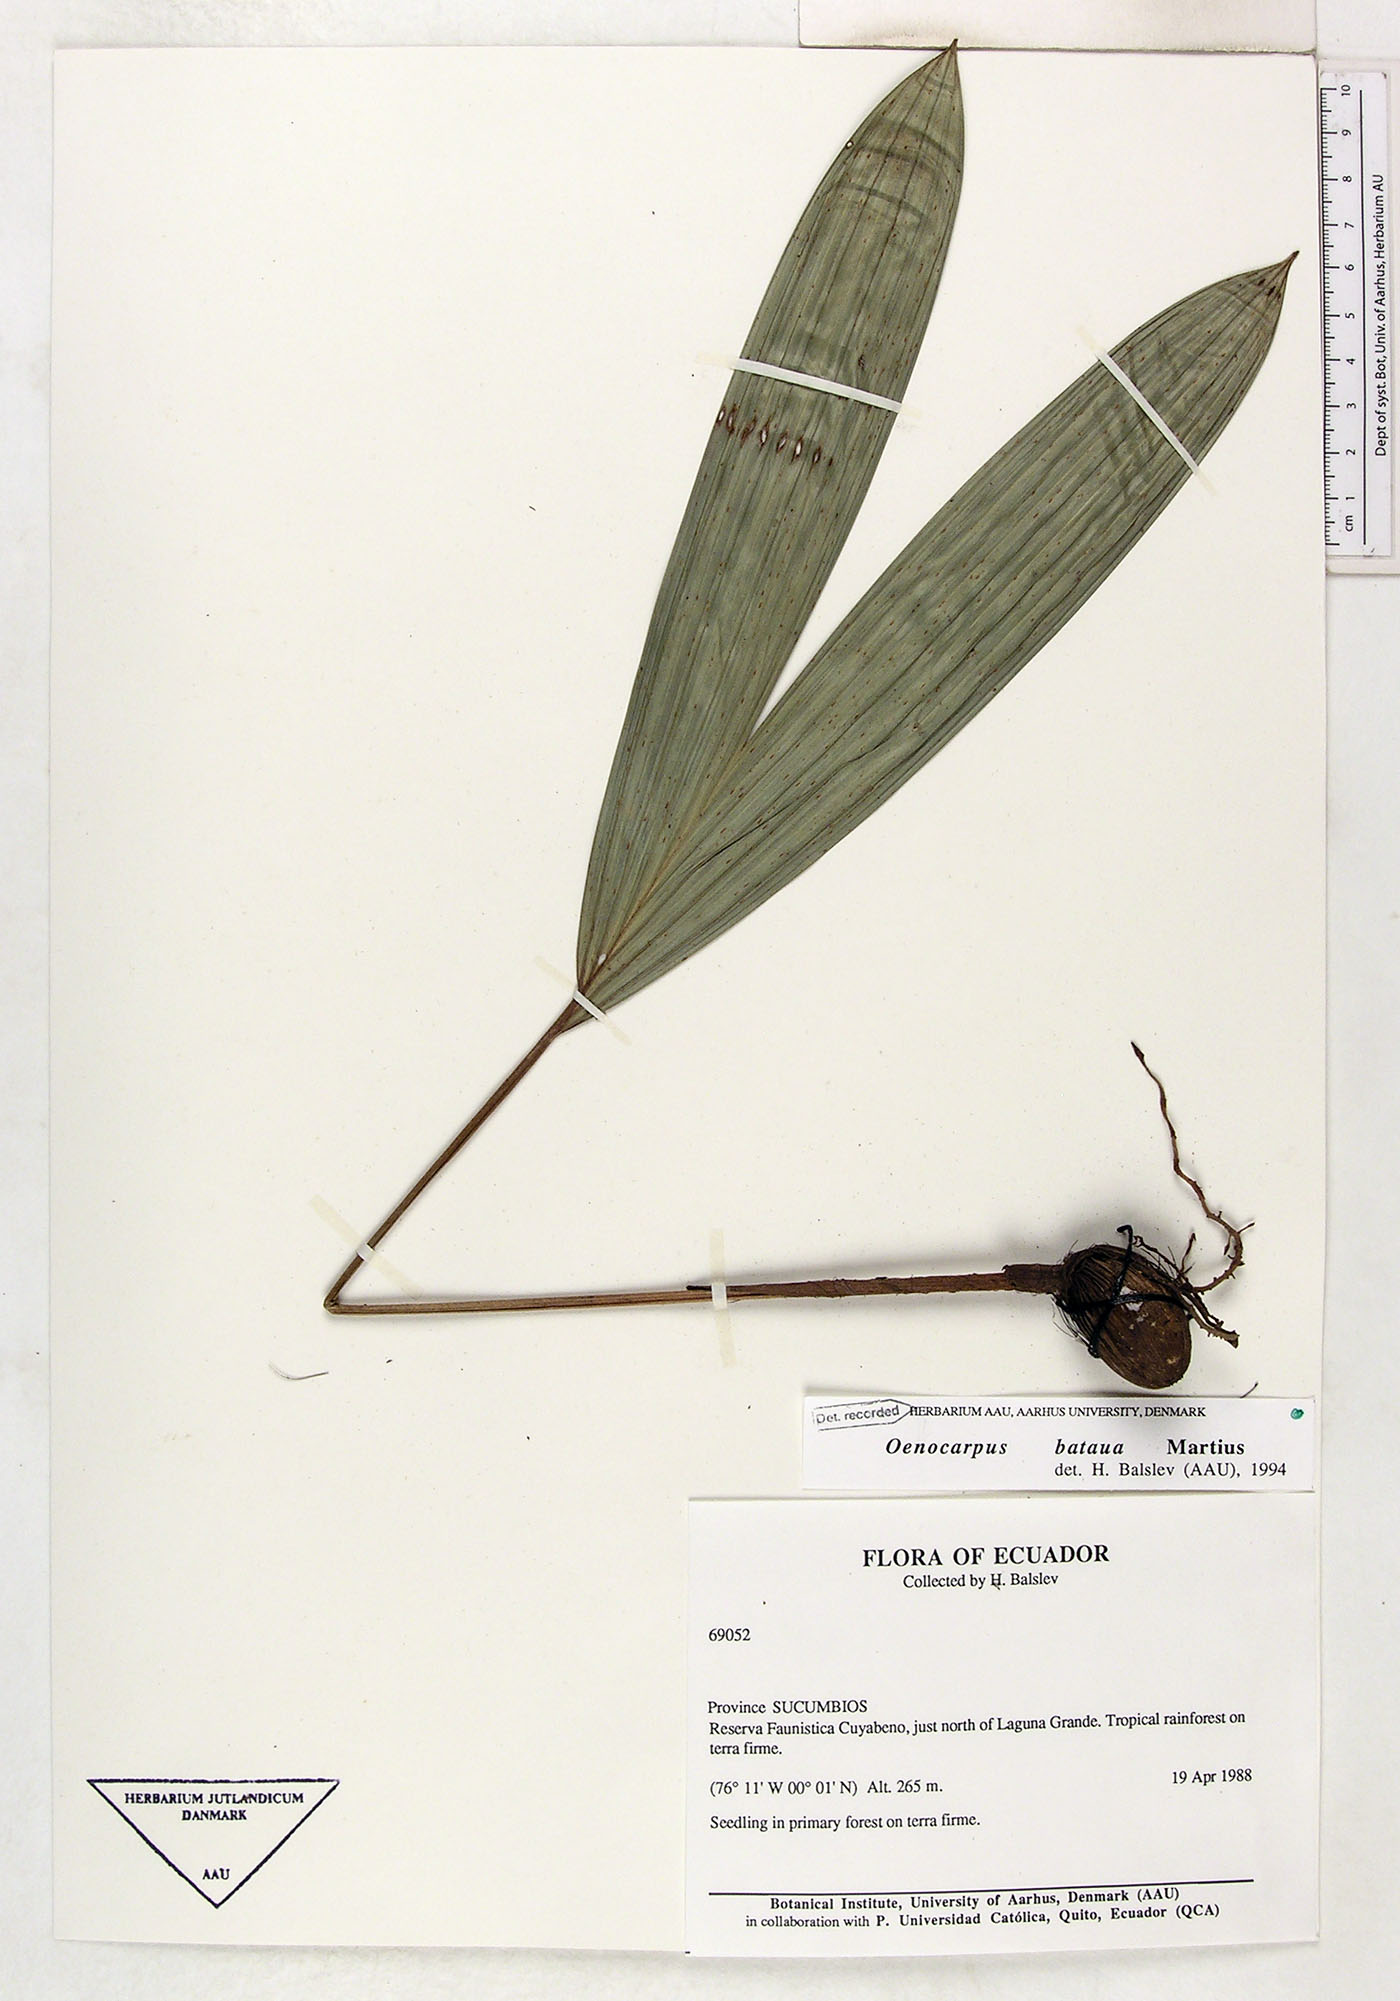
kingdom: Plantae
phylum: Tracheophyta
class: Liliopsida
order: Arecales
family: Arecaceae
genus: Oenocarpus
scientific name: Oenocarpus bataua
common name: Bataua palm
